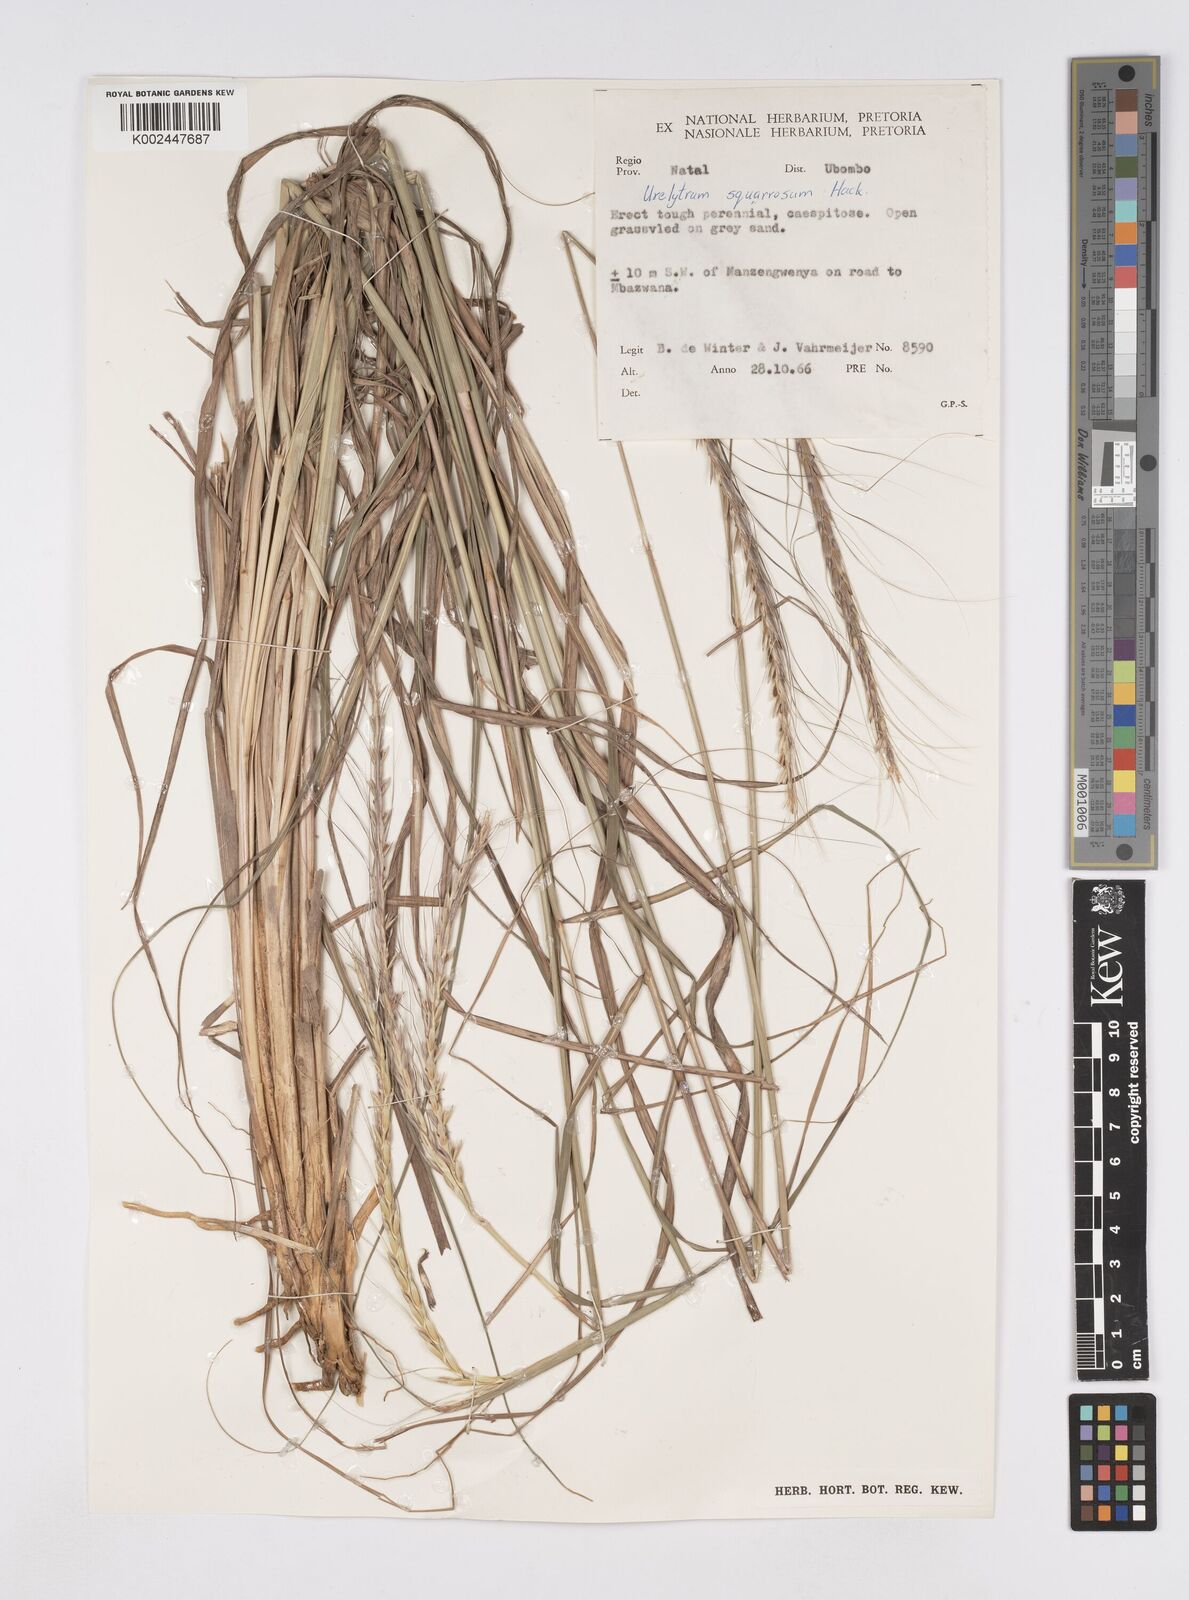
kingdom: Plantae
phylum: Tracheophyta
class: Liliopsida
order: Poales
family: Poaceae
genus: Urelytrum
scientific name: Urelytrum agropyroides
